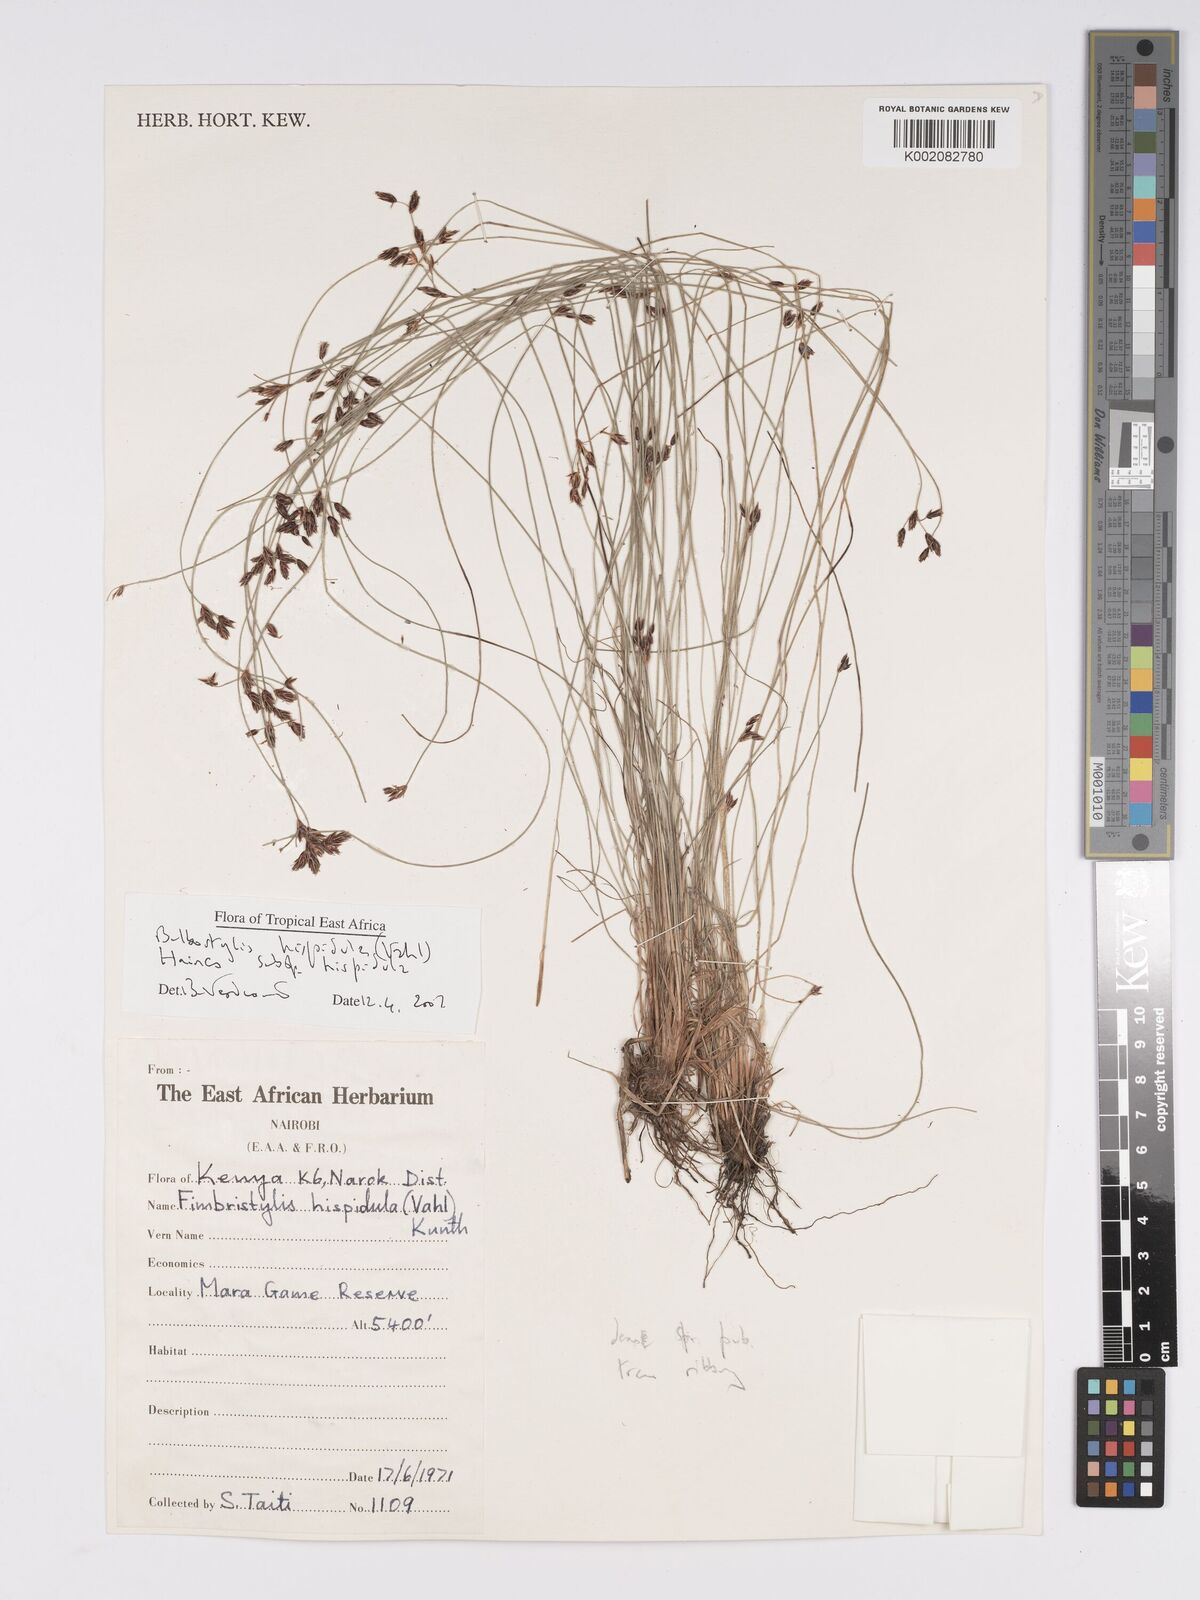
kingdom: Plantae
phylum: Tracheophyta
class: Liliopsida
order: Poales
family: Cyperaceae
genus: Bulbostylis
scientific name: Bulbostylis hispidula
